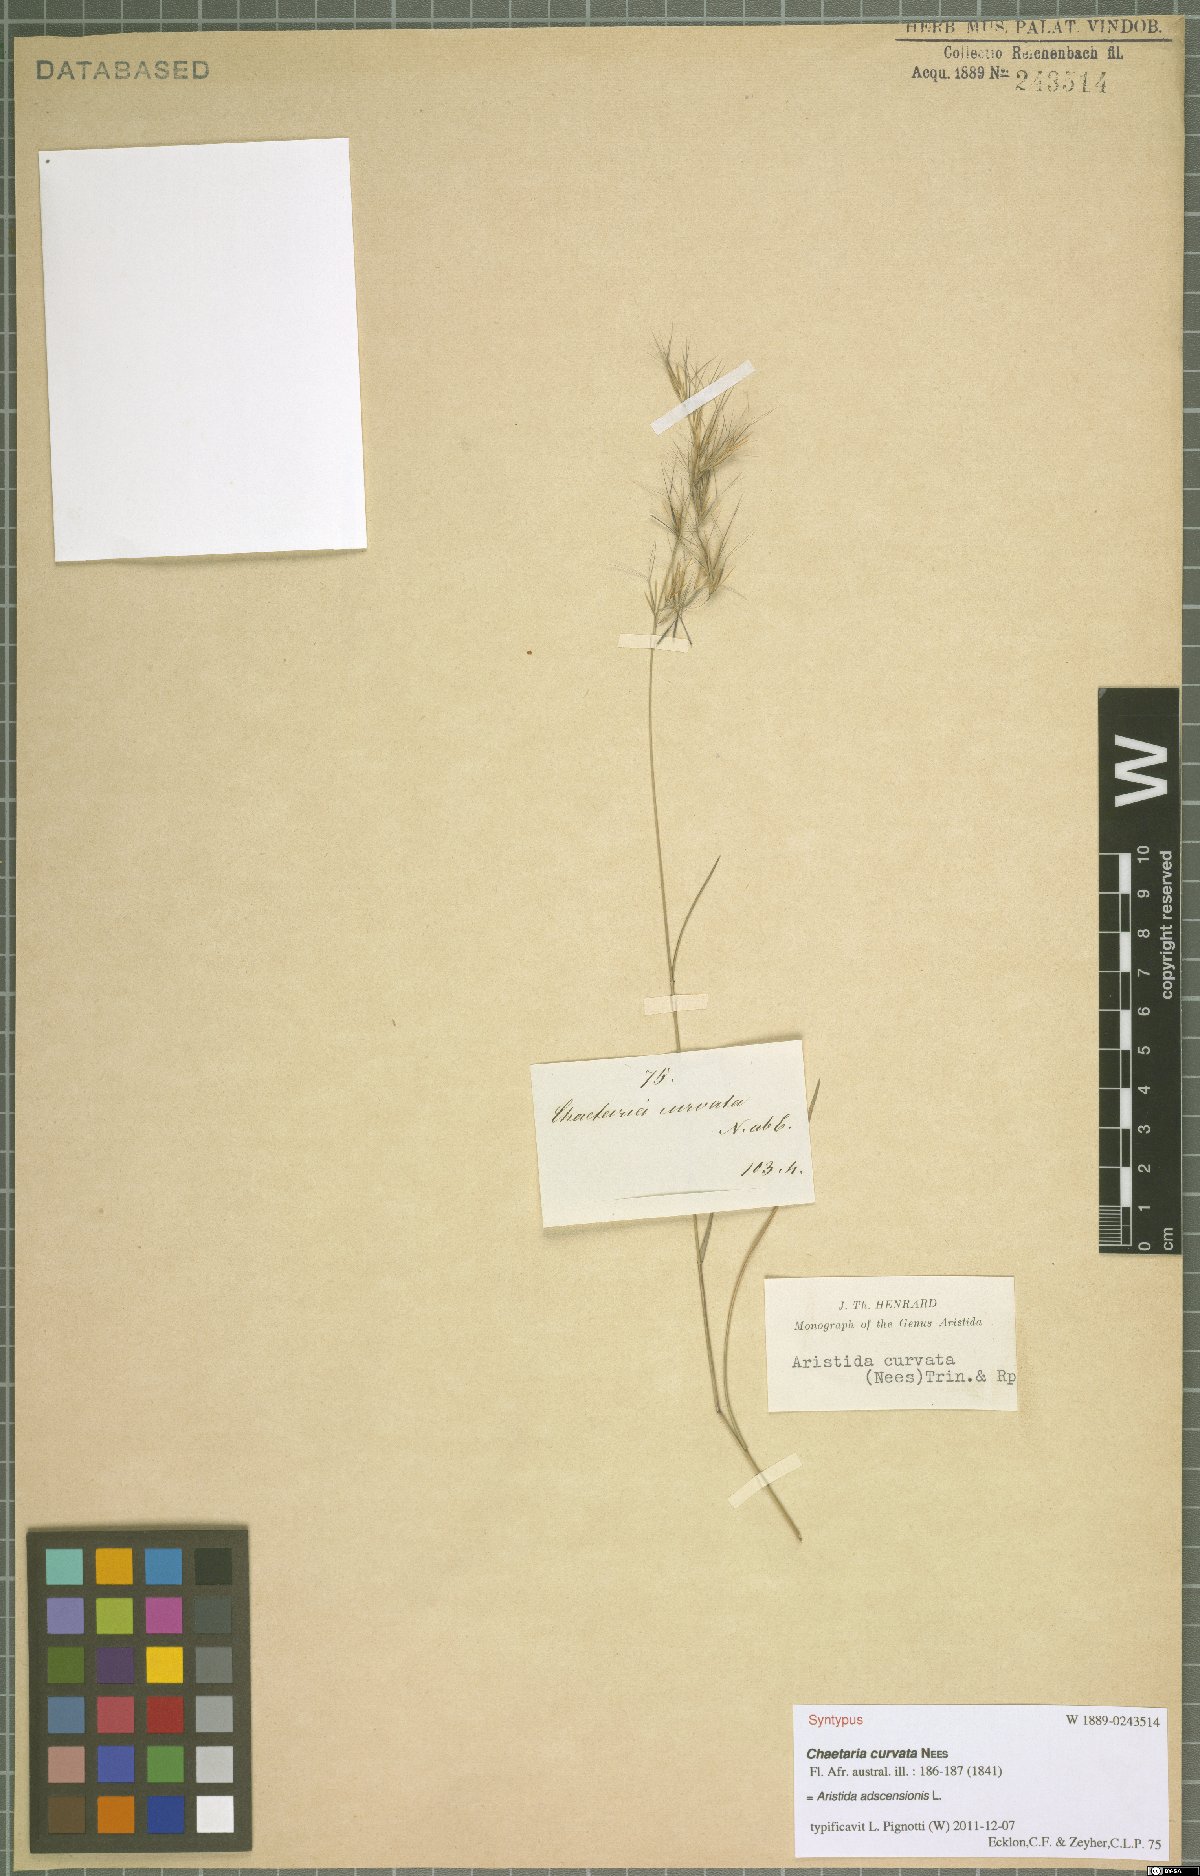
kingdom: Plantae
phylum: Tracheophyta
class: Liliopsida
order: Poales
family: Poaceae
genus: Aristida
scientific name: Aristida adscensionis
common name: Sixweeks threeawn
